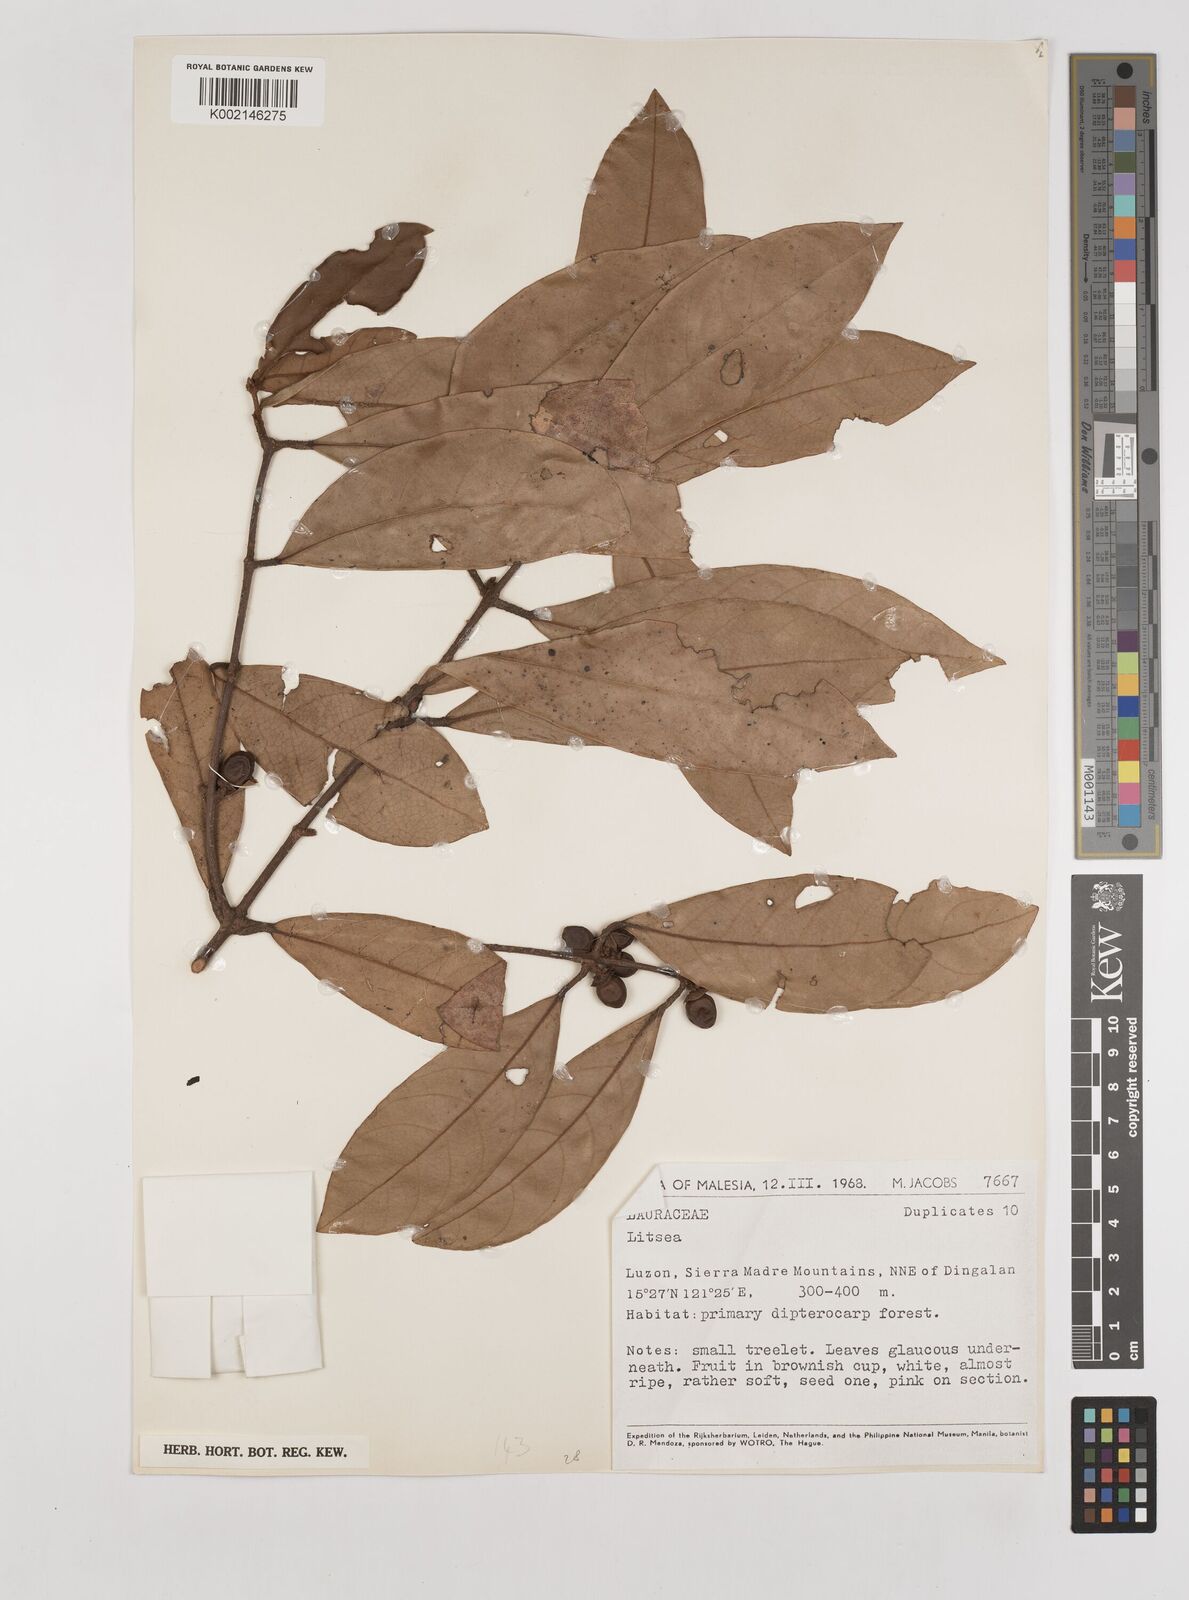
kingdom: Plantae
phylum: Tracheophyta
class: Magnoliopsida
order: Laurales
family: Lauraceae
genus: Litsea
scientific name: Litsea
